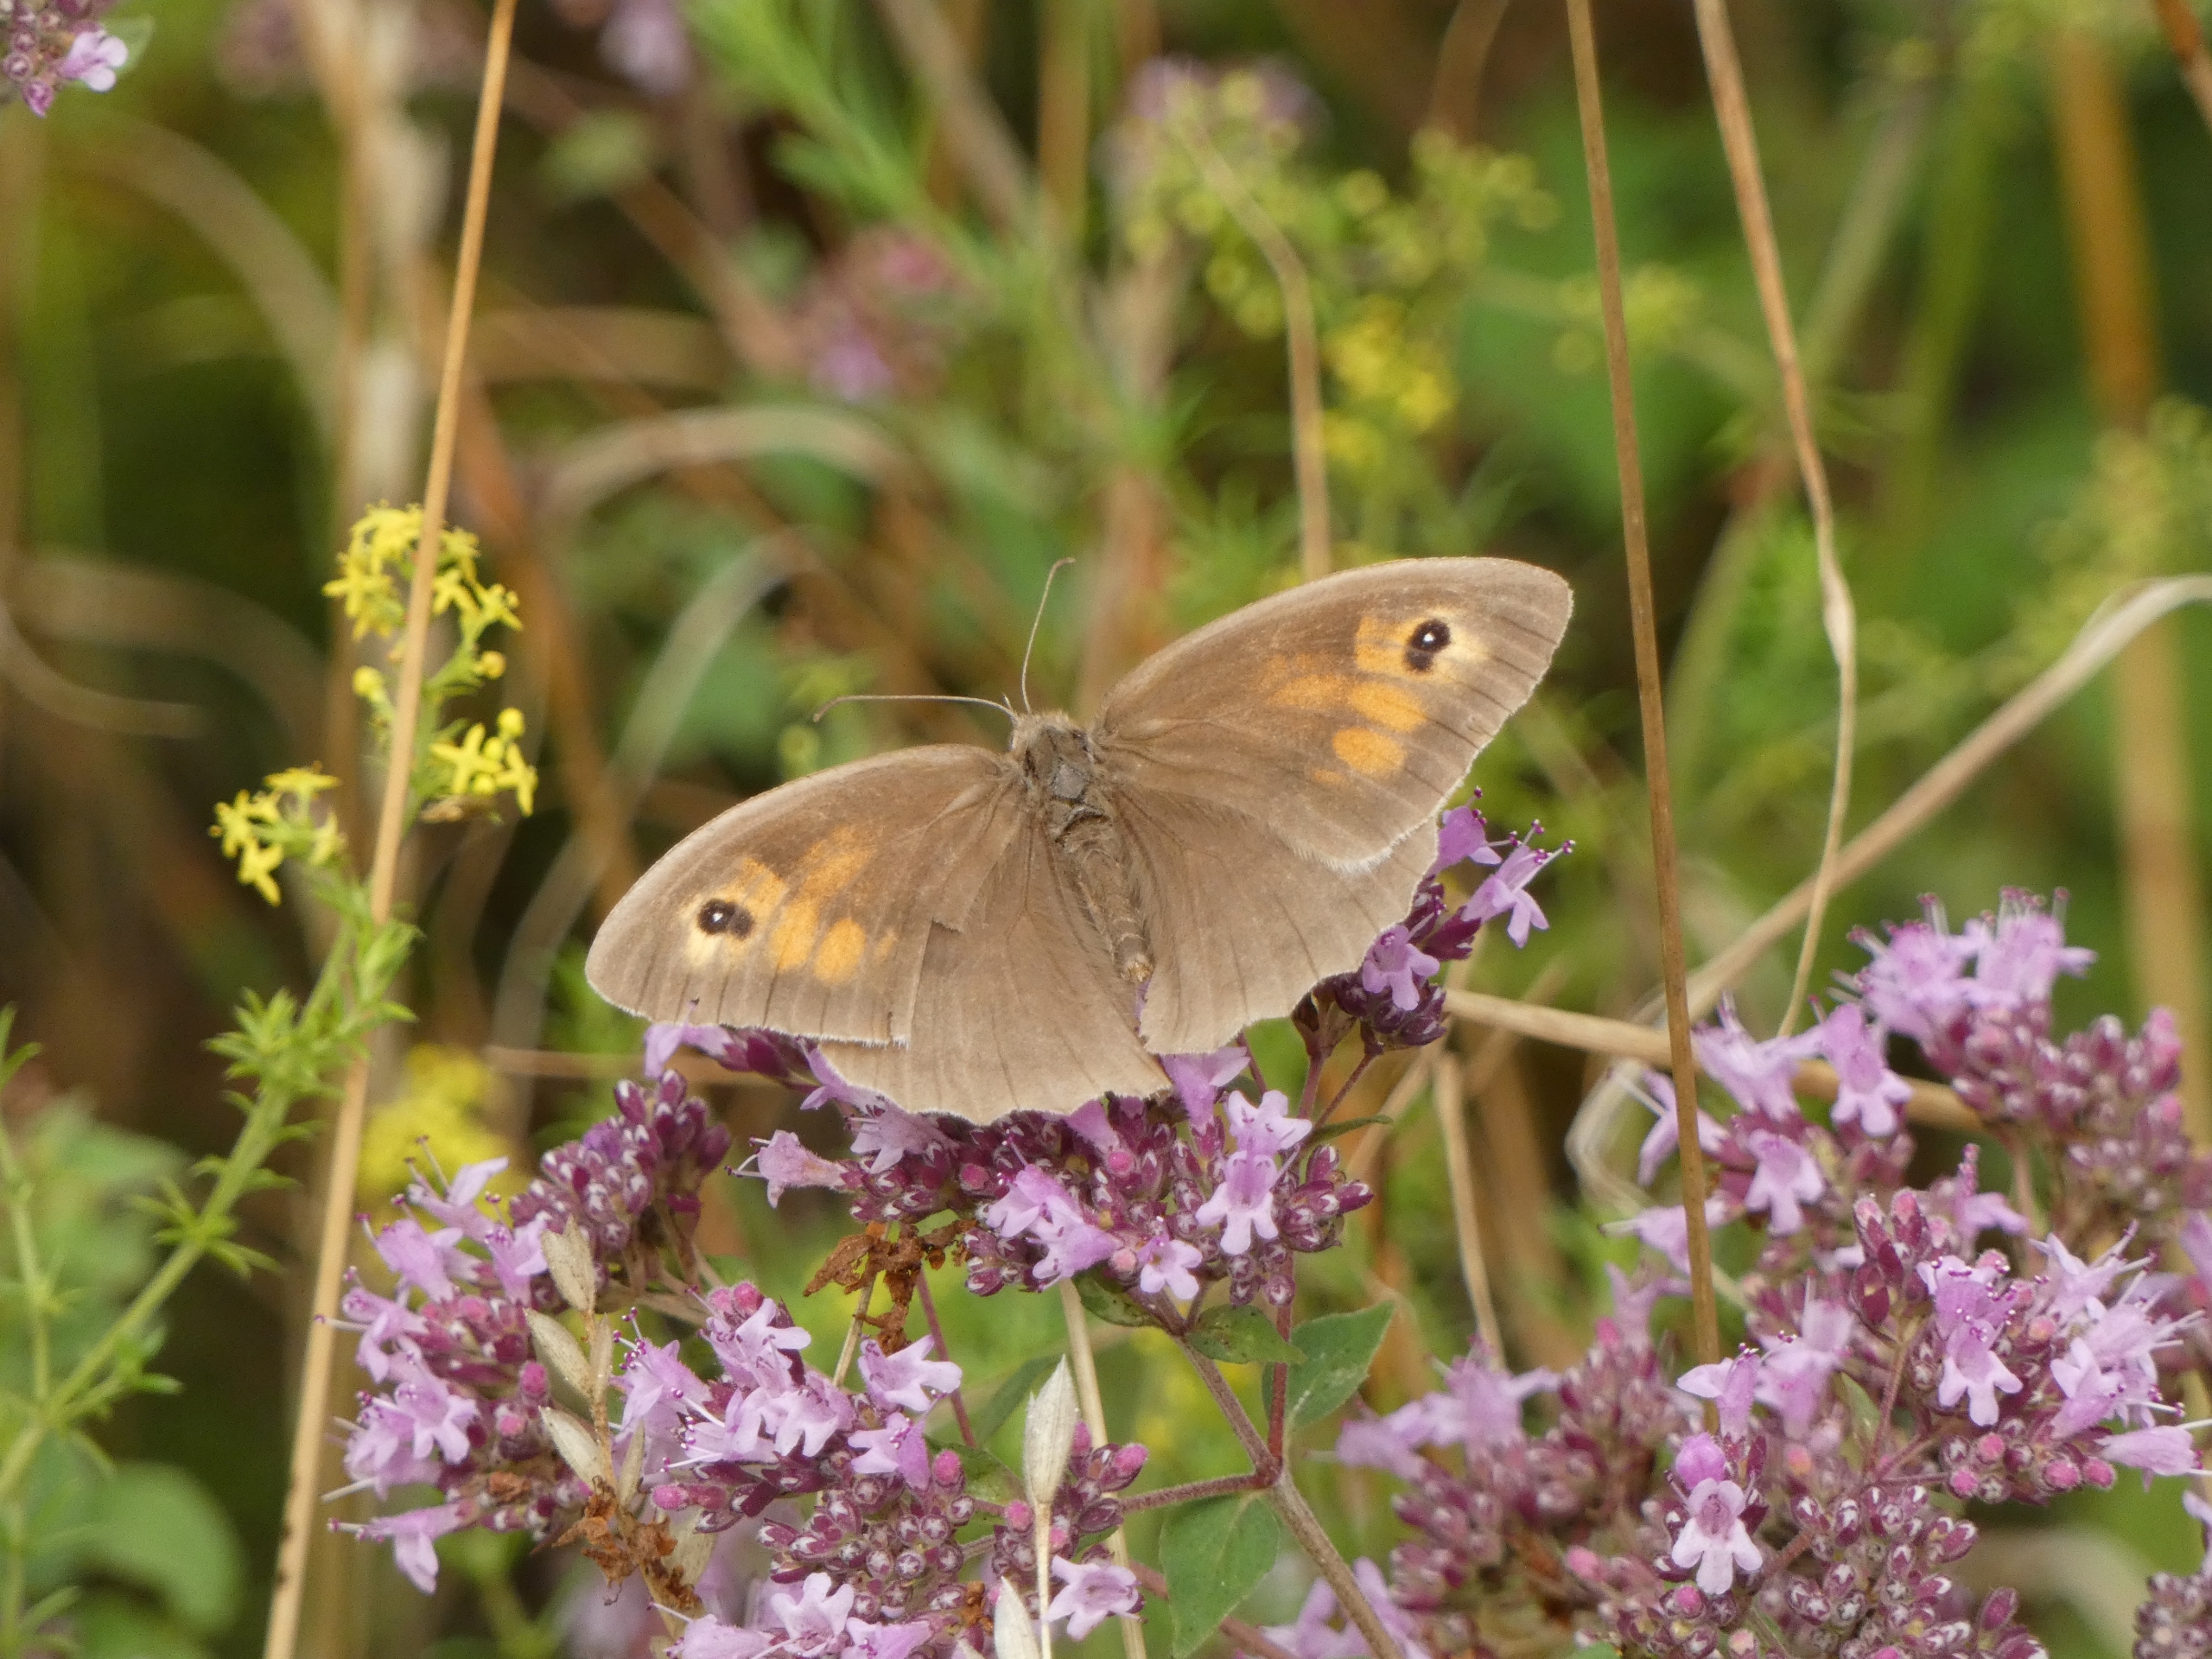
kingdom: Animalia
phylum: Arthropoda
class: Insecta
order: Lepidoptera
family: Nymphalidae
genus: Maniola
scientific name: Maniola jurtina
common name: Græsrandøje
